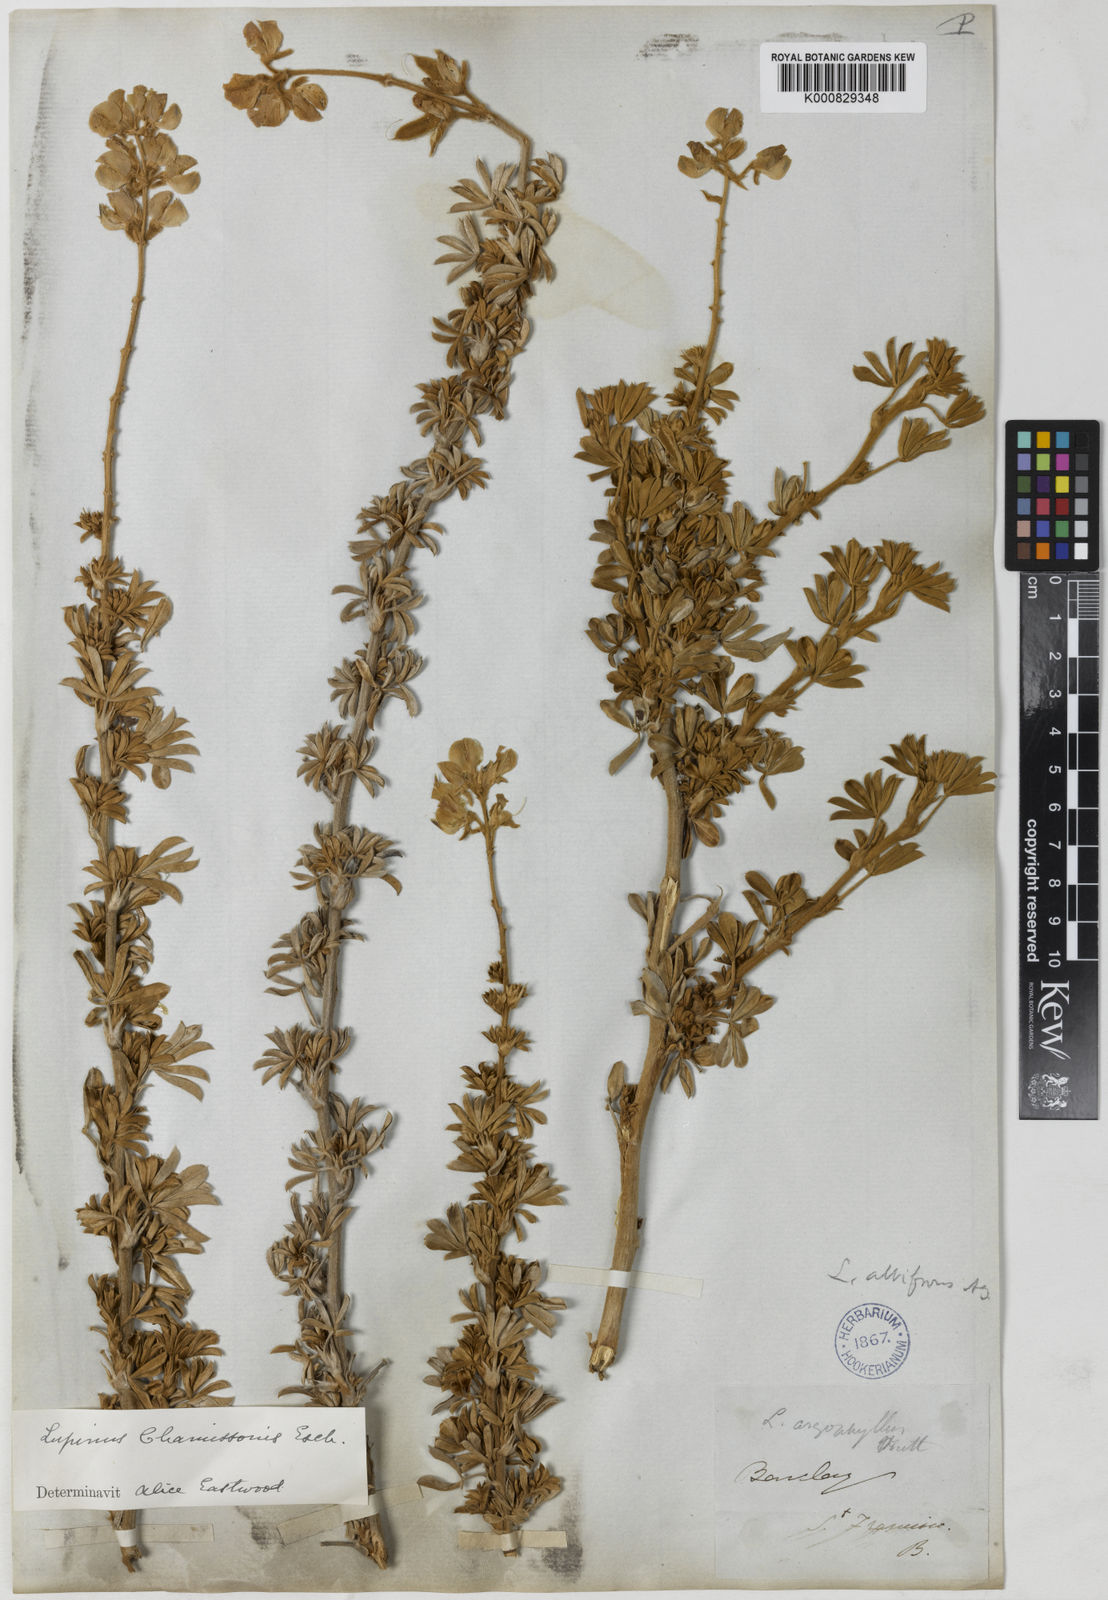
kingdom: Plantae
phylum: Tracheophyta
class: Magnoliopsida
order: Fabales
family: Fabaceae
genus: Lupinus
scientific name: Lupinus chamissonis
